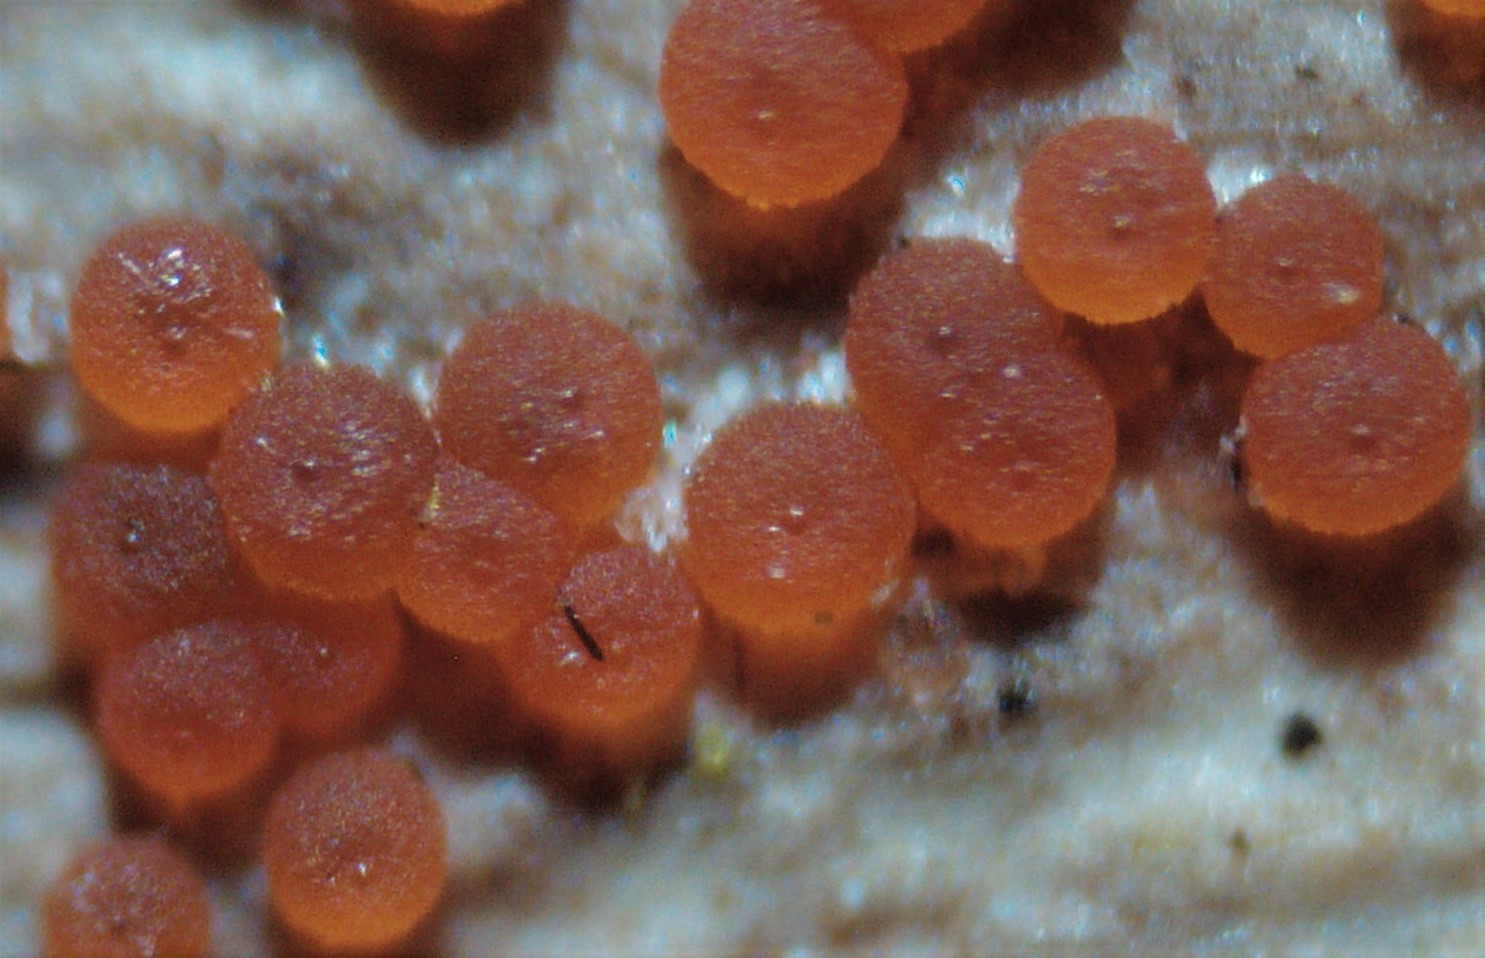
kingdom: Fungi
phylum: Ascomycota
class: Sordariomycetes
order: Hypocreales
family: Nectriaceae
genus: Hydropisphaera
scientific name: Hydropisphaera peziza
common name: skålformet gyldenkerne
